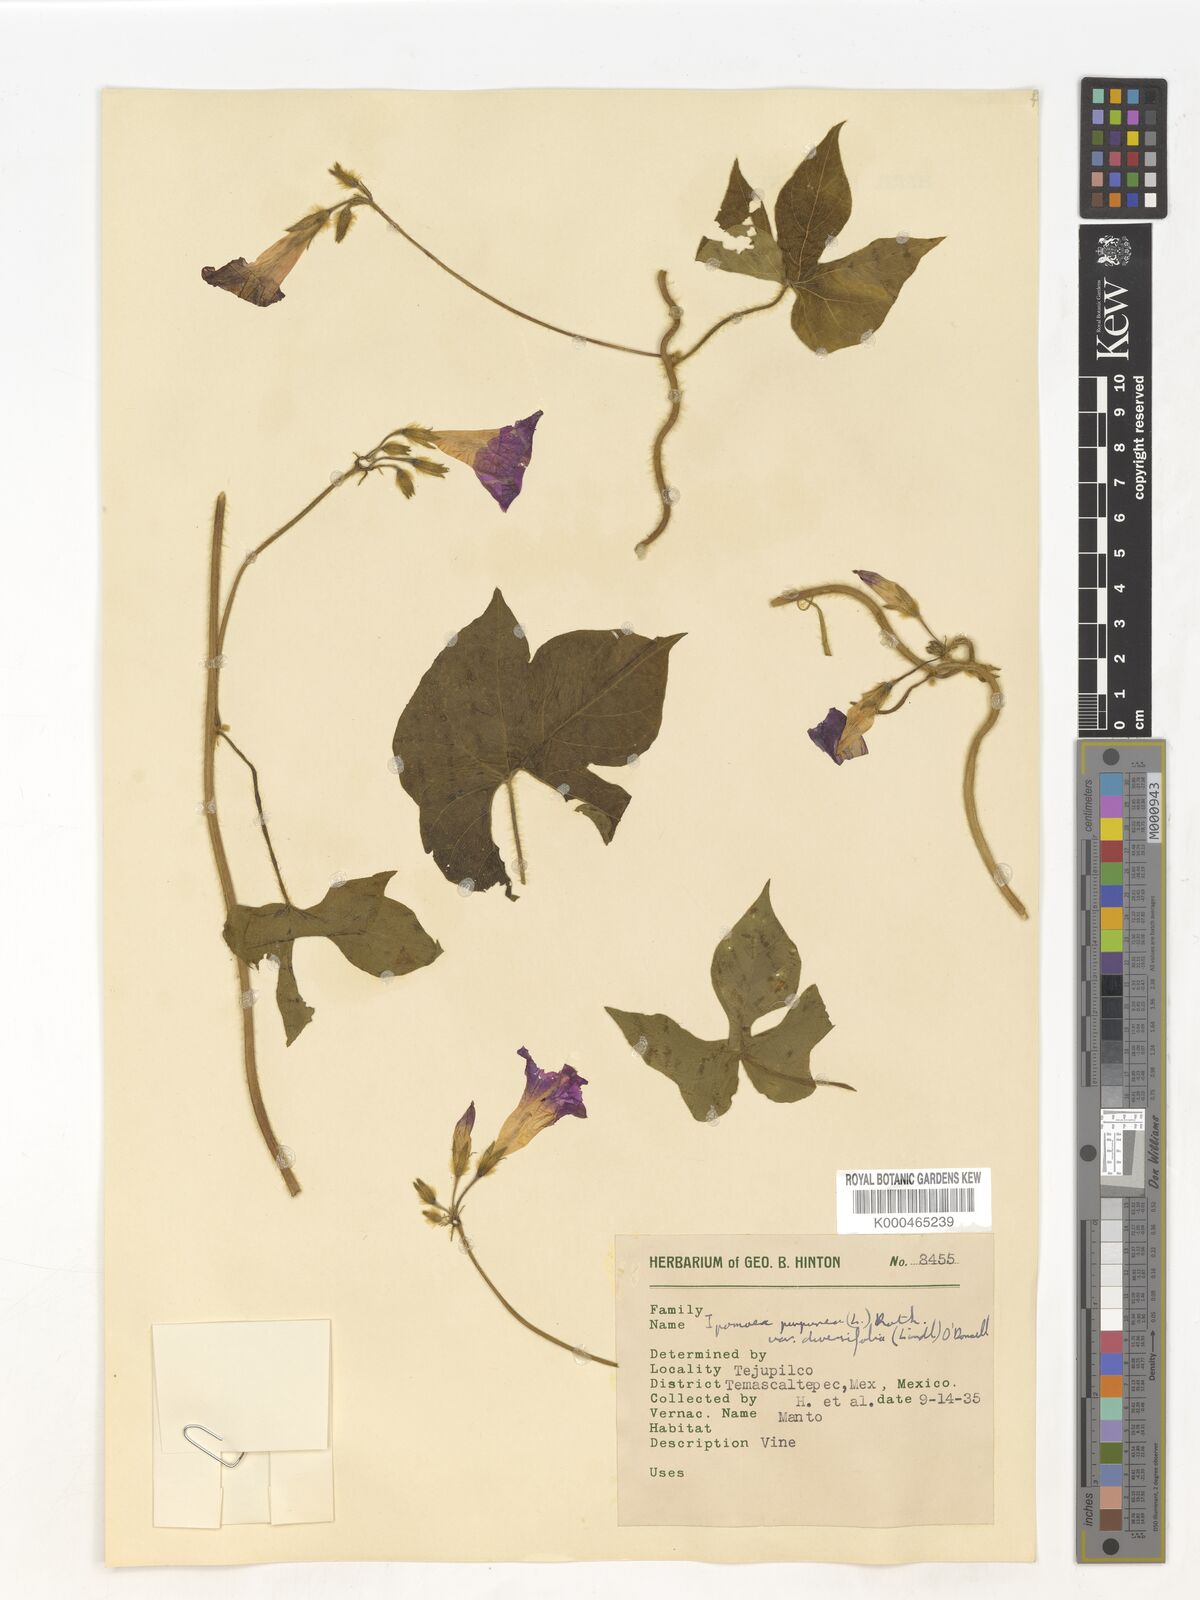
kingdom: Plantae
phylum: Tracheophyta
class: Magnoliopsida
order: Solanales
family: Convolvulaceae
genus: Ipomoea
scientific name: Ipomoea purpurea
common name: Common morning-glory
